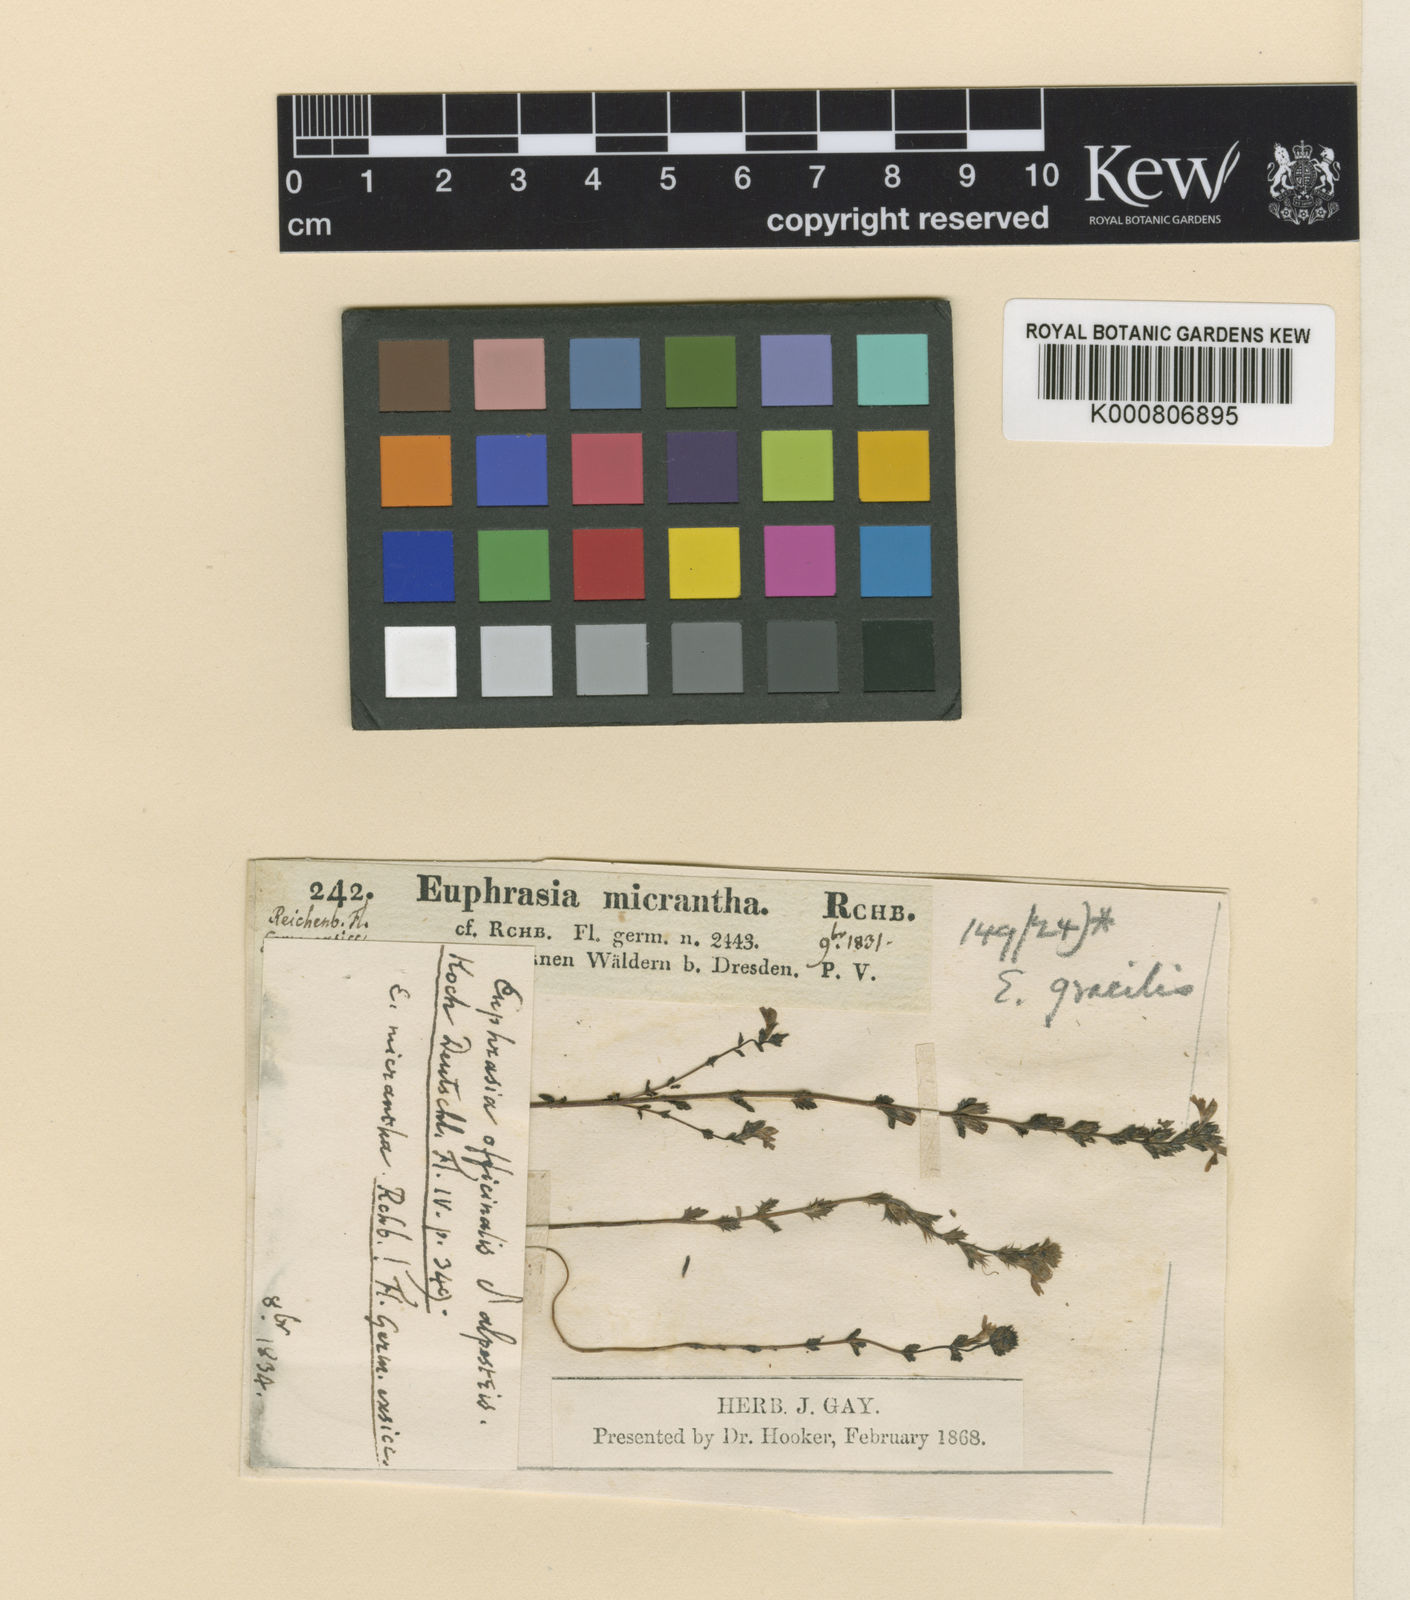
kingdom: Plantae
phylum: Tracheophyta
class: Magnoliopsida
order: Lamiales
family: Orobanchaceae
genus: Euphrasia
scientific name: Euphrasia micrantha
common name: Northern eyebright
